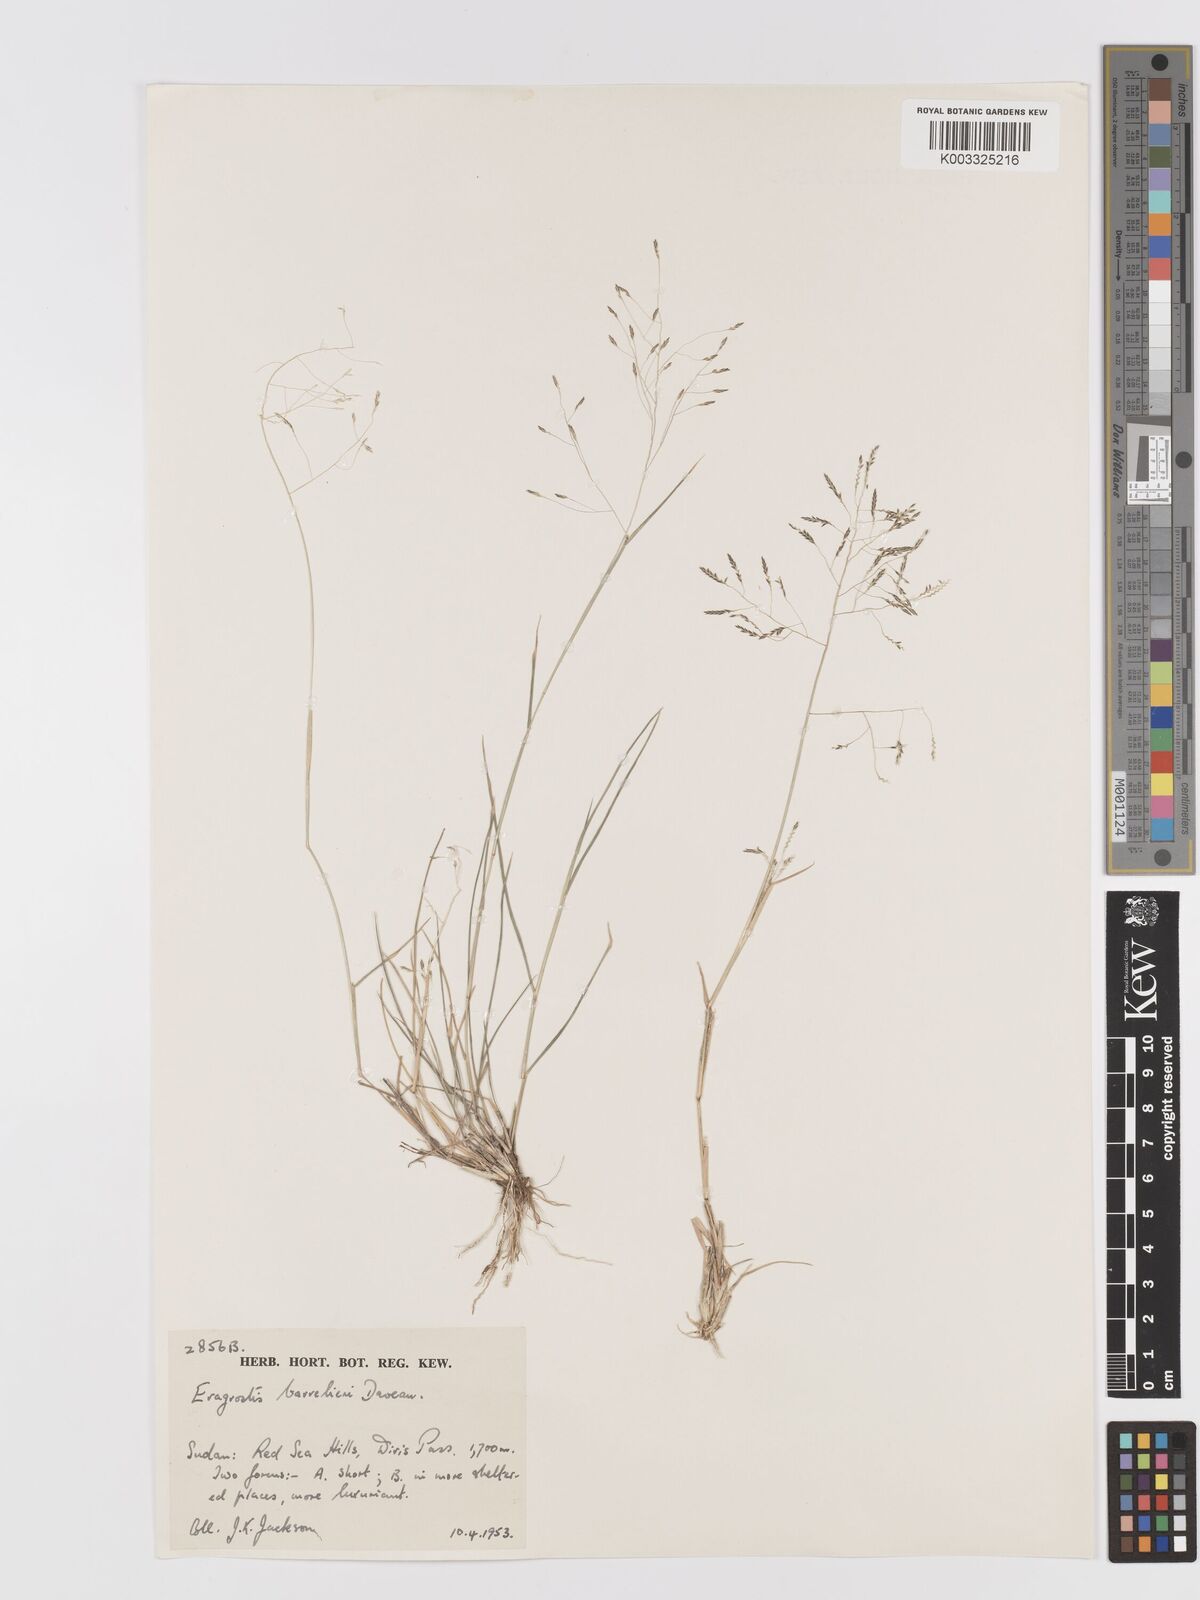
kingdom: Plantae
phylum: Tracheophyta
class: Liliopsida
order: Poales
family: Poaceae
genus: Eragrostis
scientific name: Eragrostis papposa
